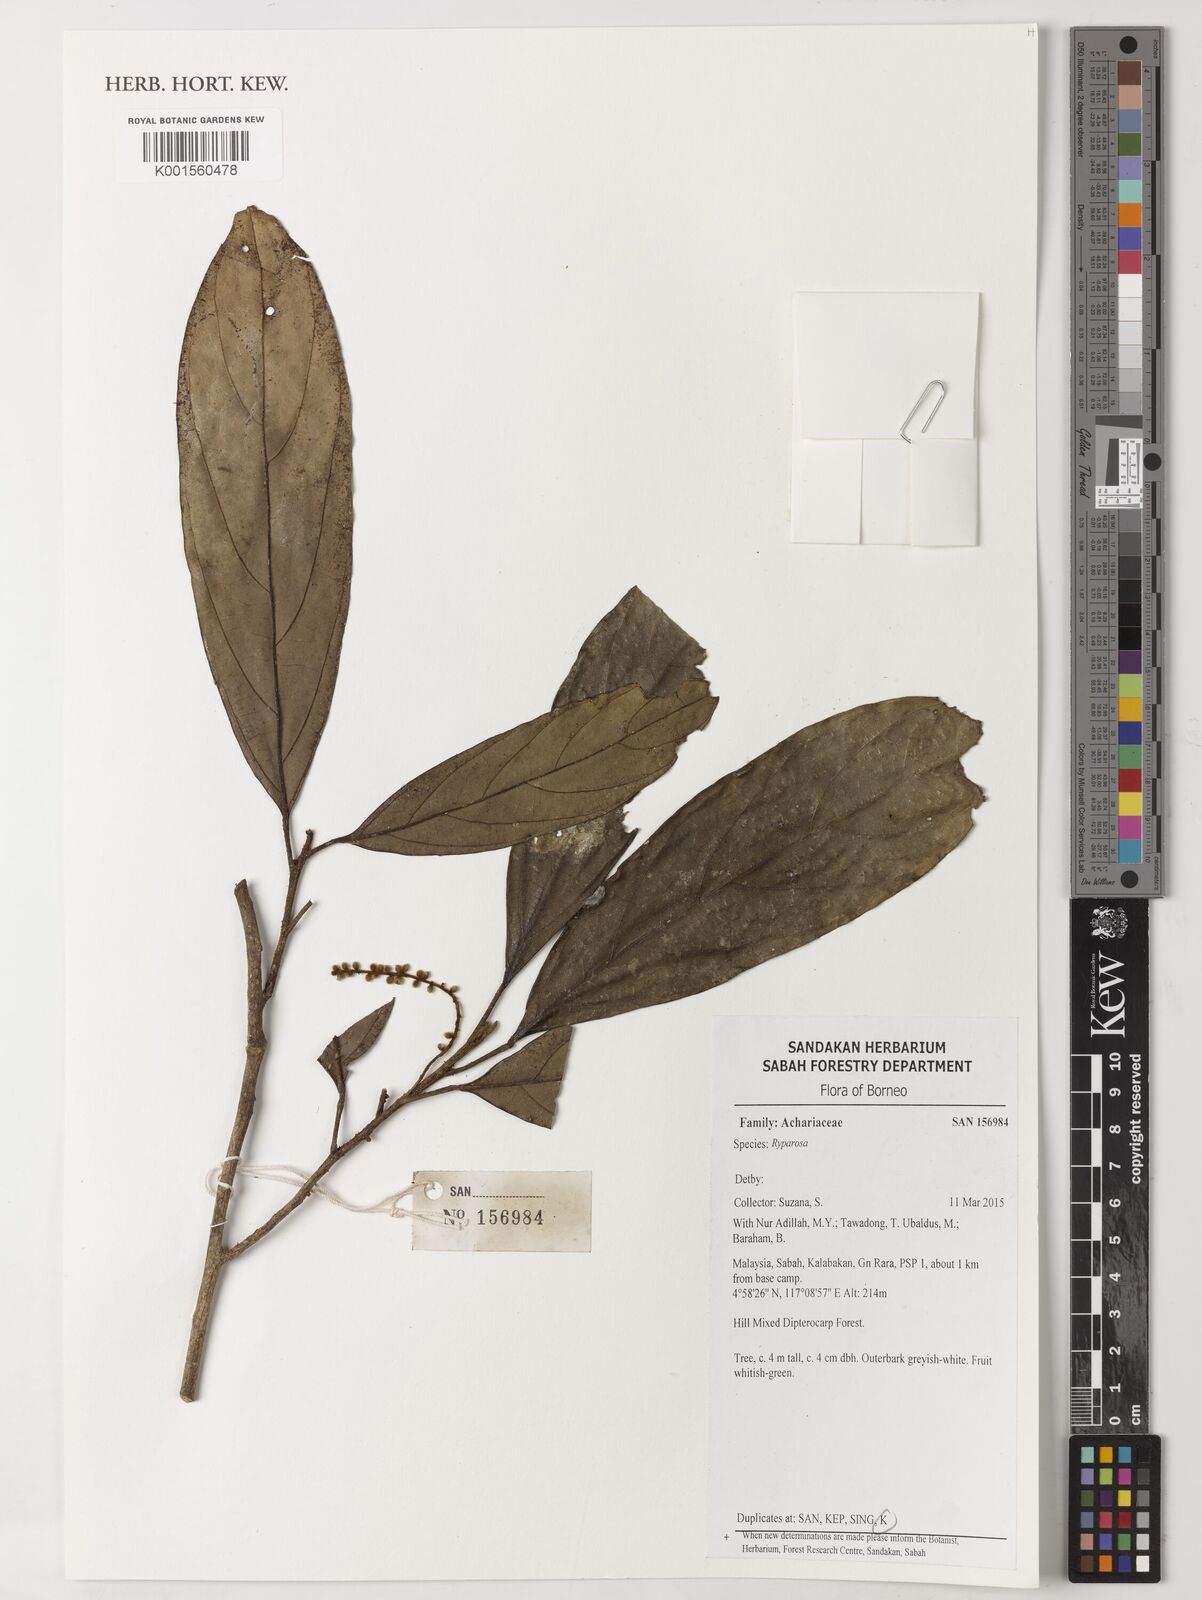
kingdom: Plantae
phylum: Tracheophyta
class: Magnoliopsida
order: Malpighiales
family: Achariaceae
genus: Ryparosa
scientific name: Ryparosa
